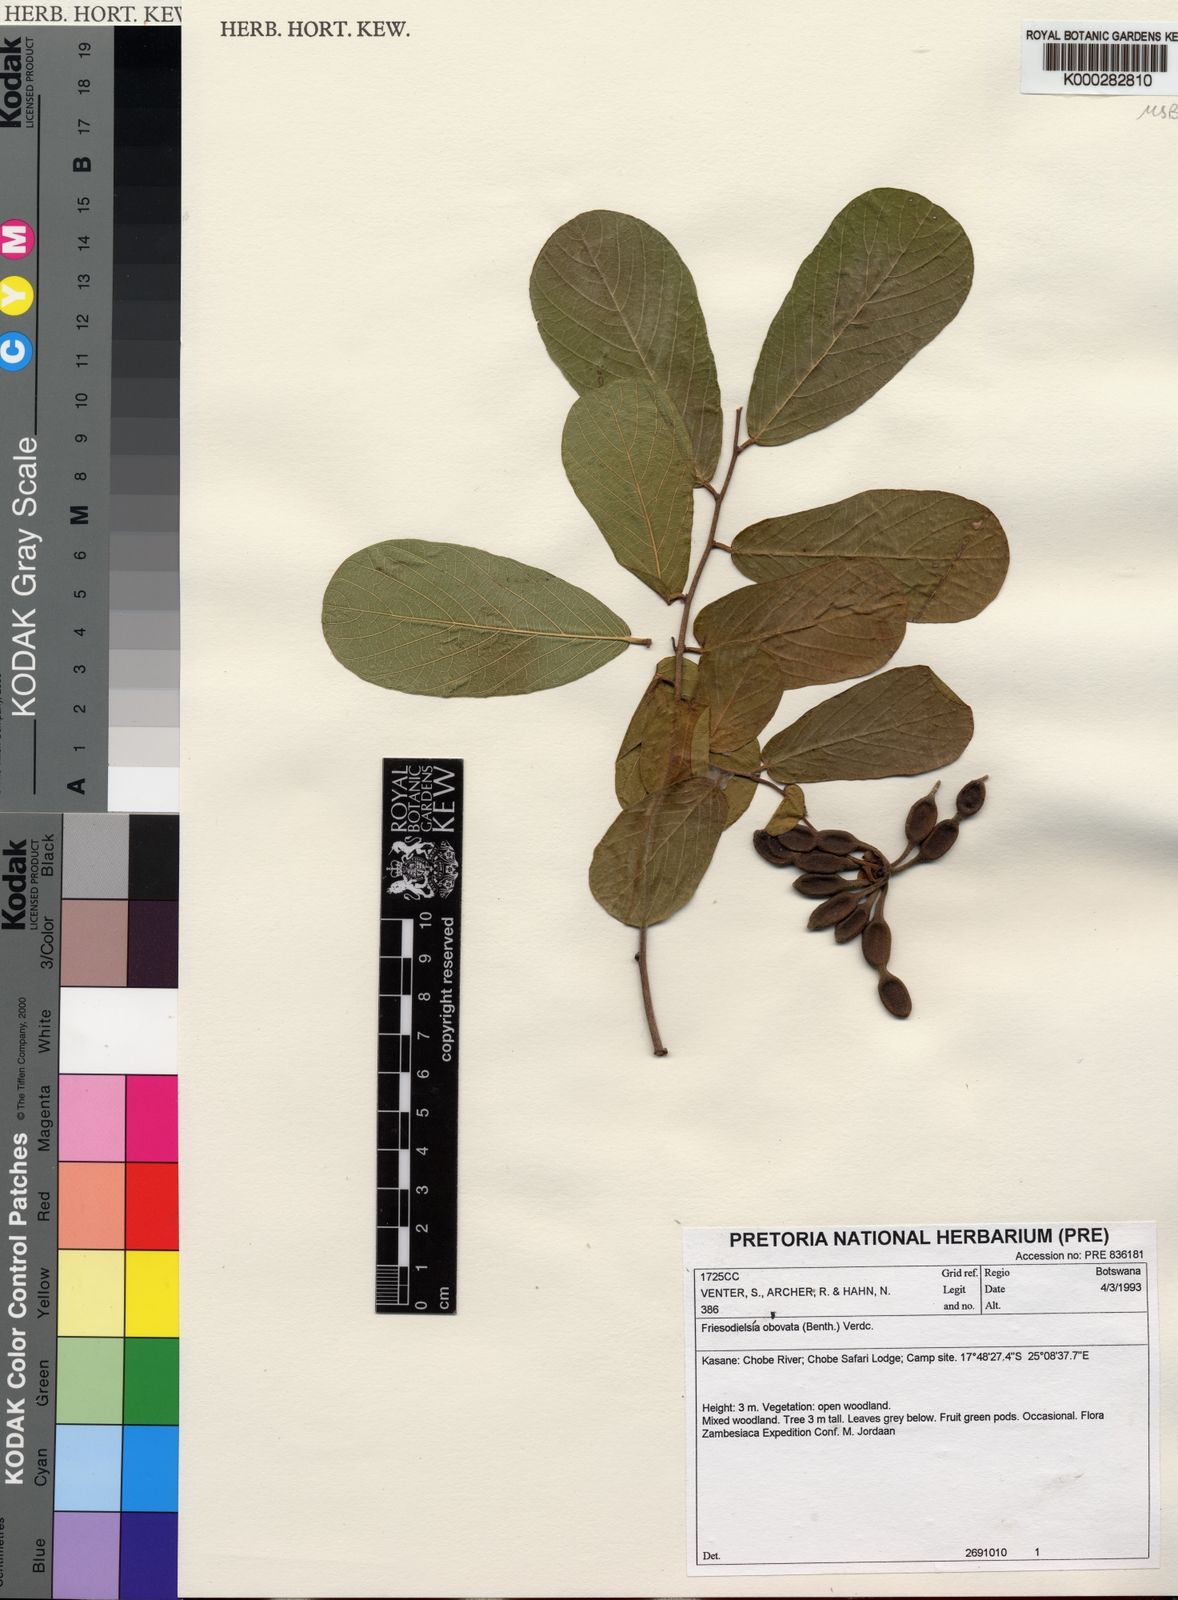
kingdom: Plantae
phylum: Tracheophyta
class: Magnoliopsida
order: Magnoliales
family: Annonaceae
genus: Friesodielsia
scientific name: Friesodielsia obovata
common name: Monkey fingers
